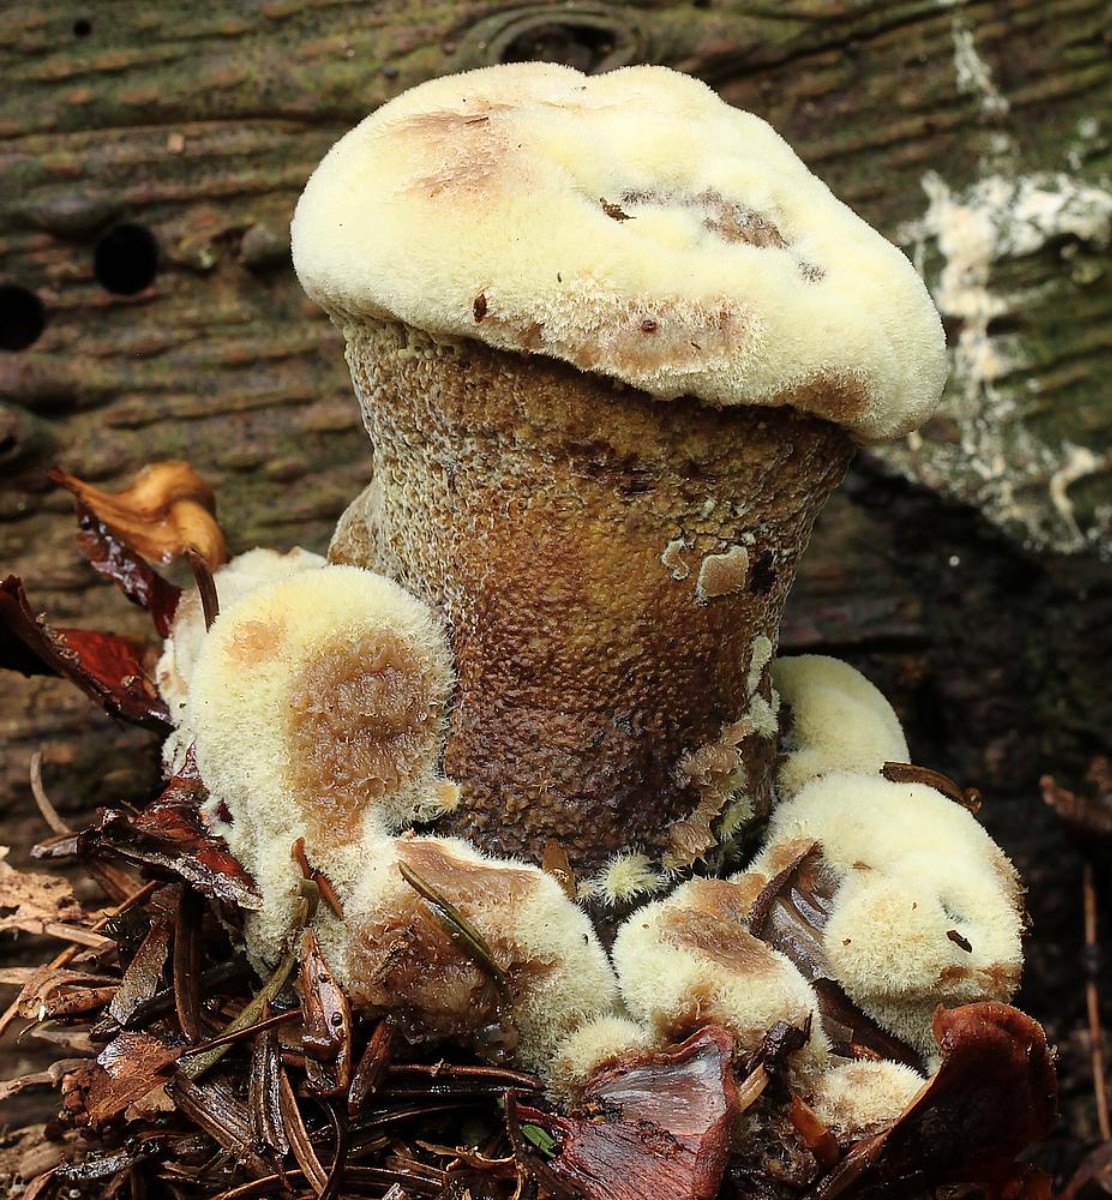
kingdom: Fungi
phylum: Basidiomycota
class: Agaricomycetes
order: Polyporales
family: Laetiporaceae
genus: Phaeolus
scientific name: Phaeolus schweinitzii
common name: brunporesvamp
